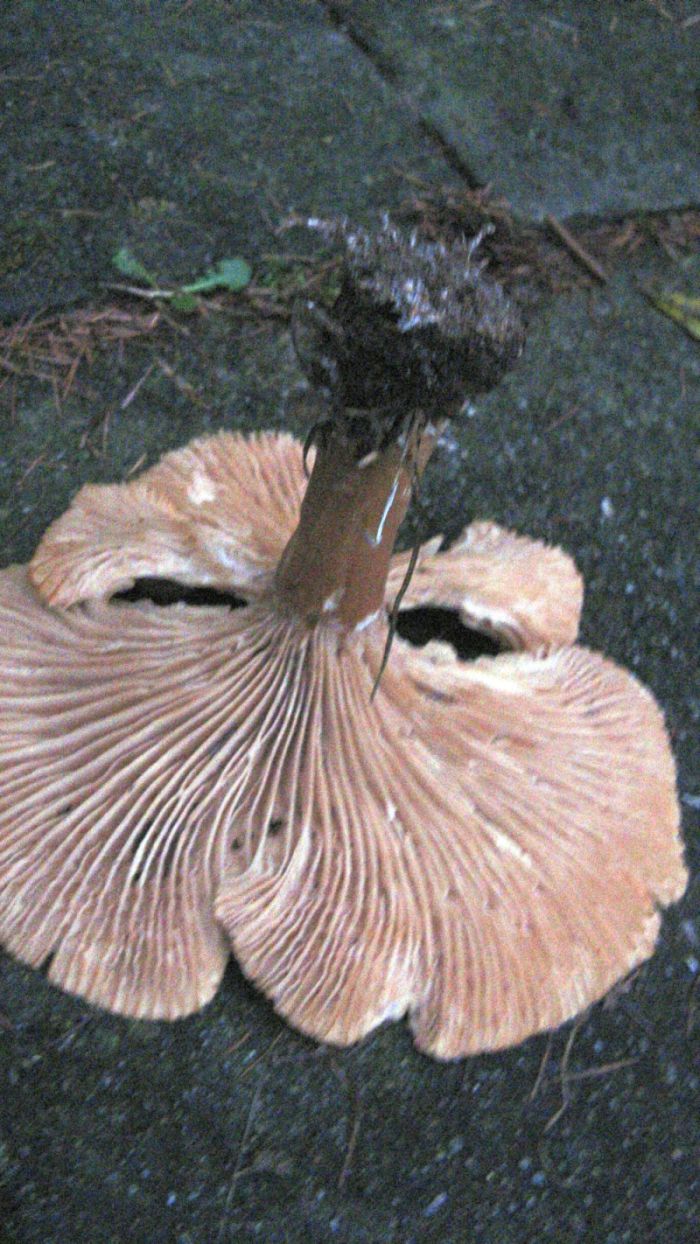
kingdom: Fungi
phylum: Basidiomycota
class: Agaricomycetes
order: Agaricales
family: Tricholomataceae
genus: Infundibulicybe
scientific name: Infundibulicybe geotropa
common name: stor tragthat
